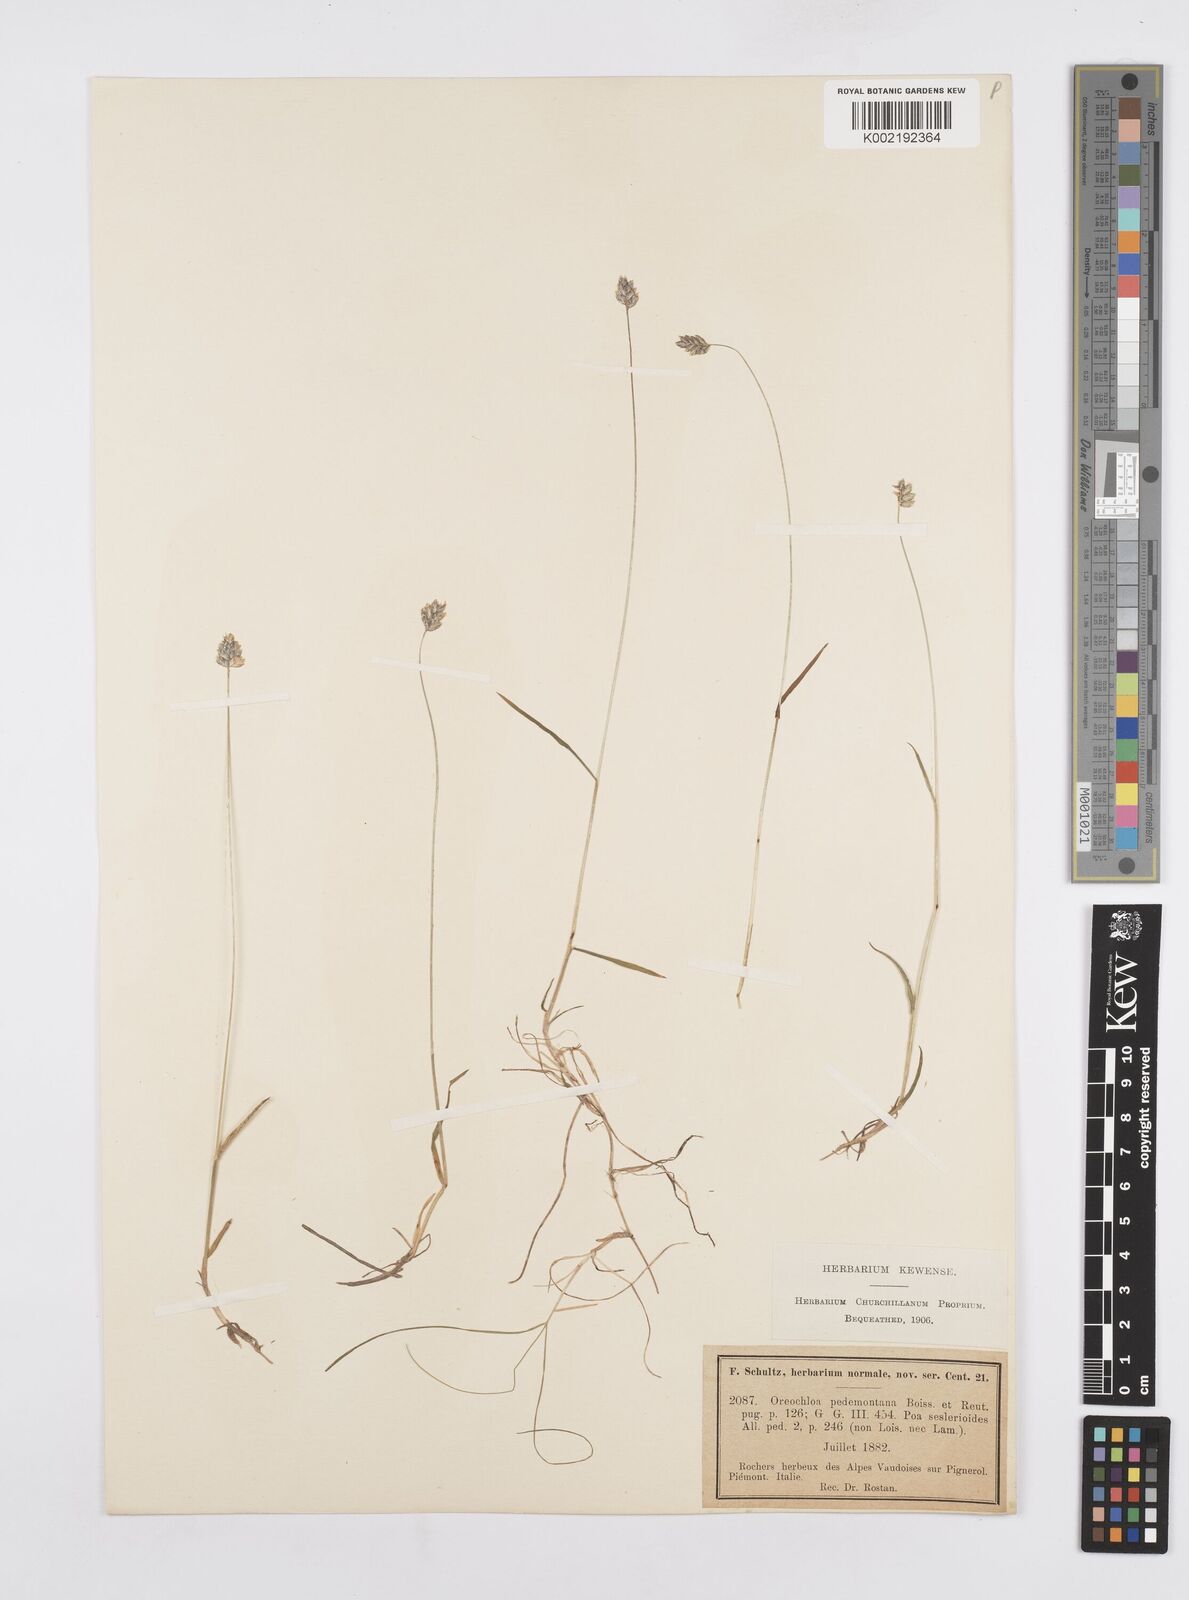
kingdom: Plantae
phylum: Tracheophyta
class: Liliopsida
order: Poales
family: Poaceae
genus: Oreochloa
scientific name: Oreochloa seslerioides
